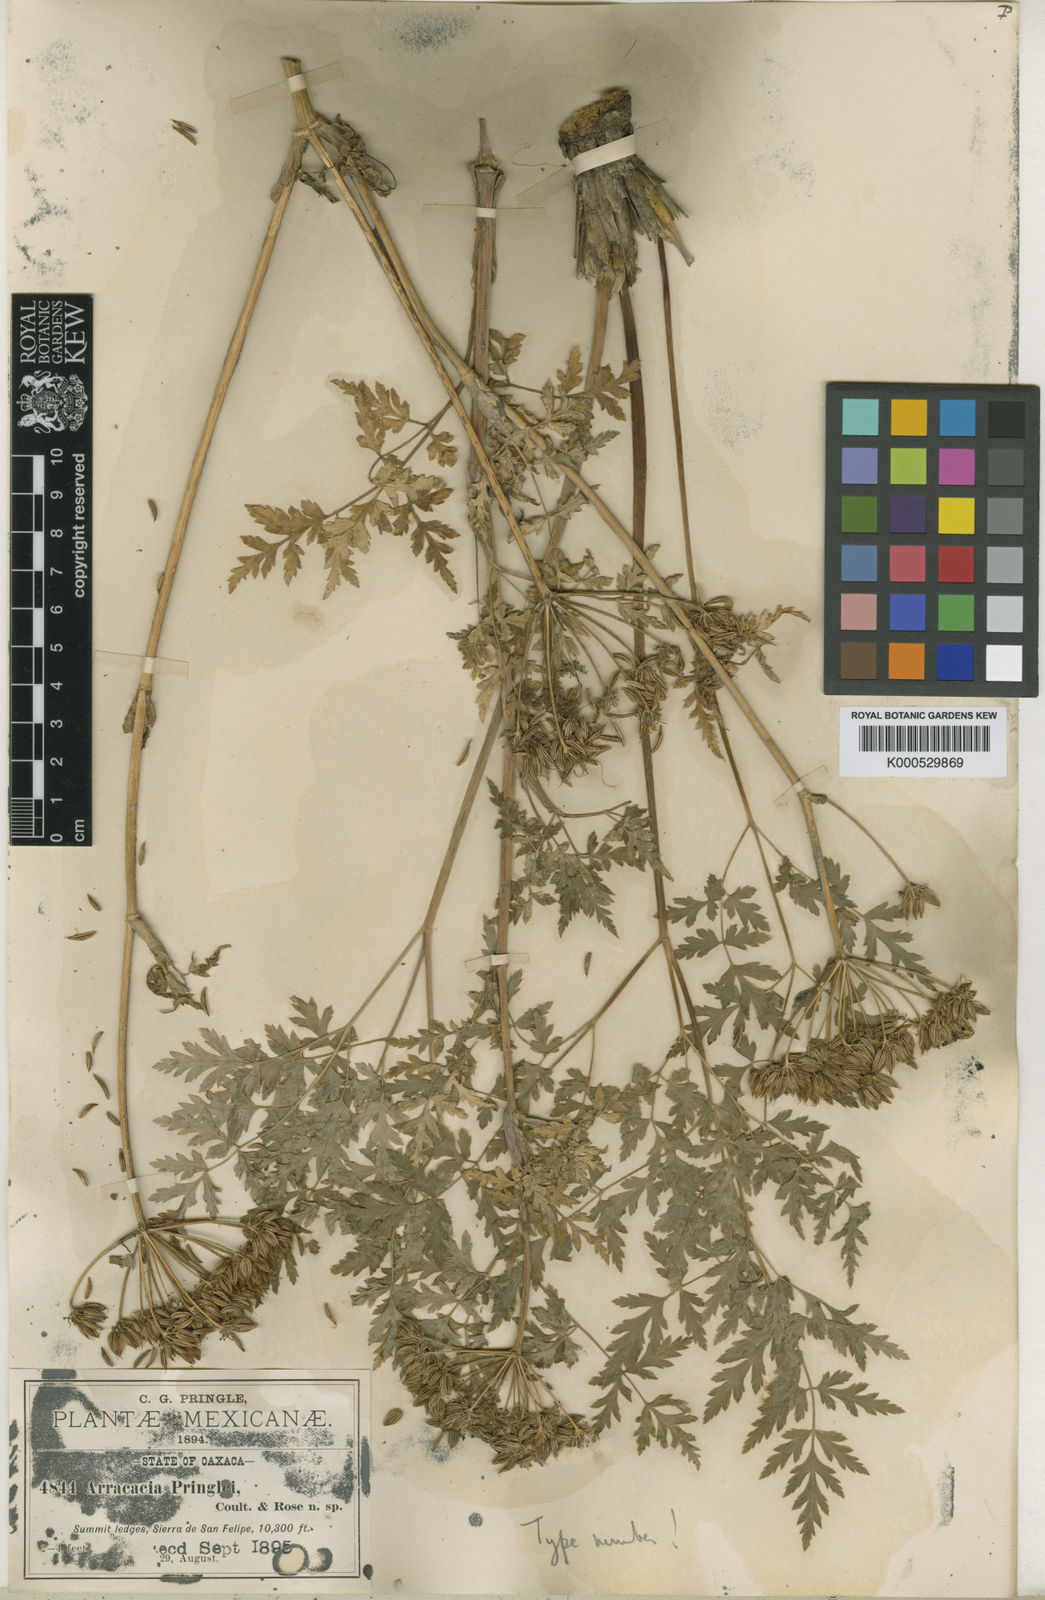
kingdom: Plantae
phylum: Tracheophyta
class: Magnoliopsida
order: Apiales
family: Apiaceae
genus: Arracacia
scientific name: Arracacia pringlei
